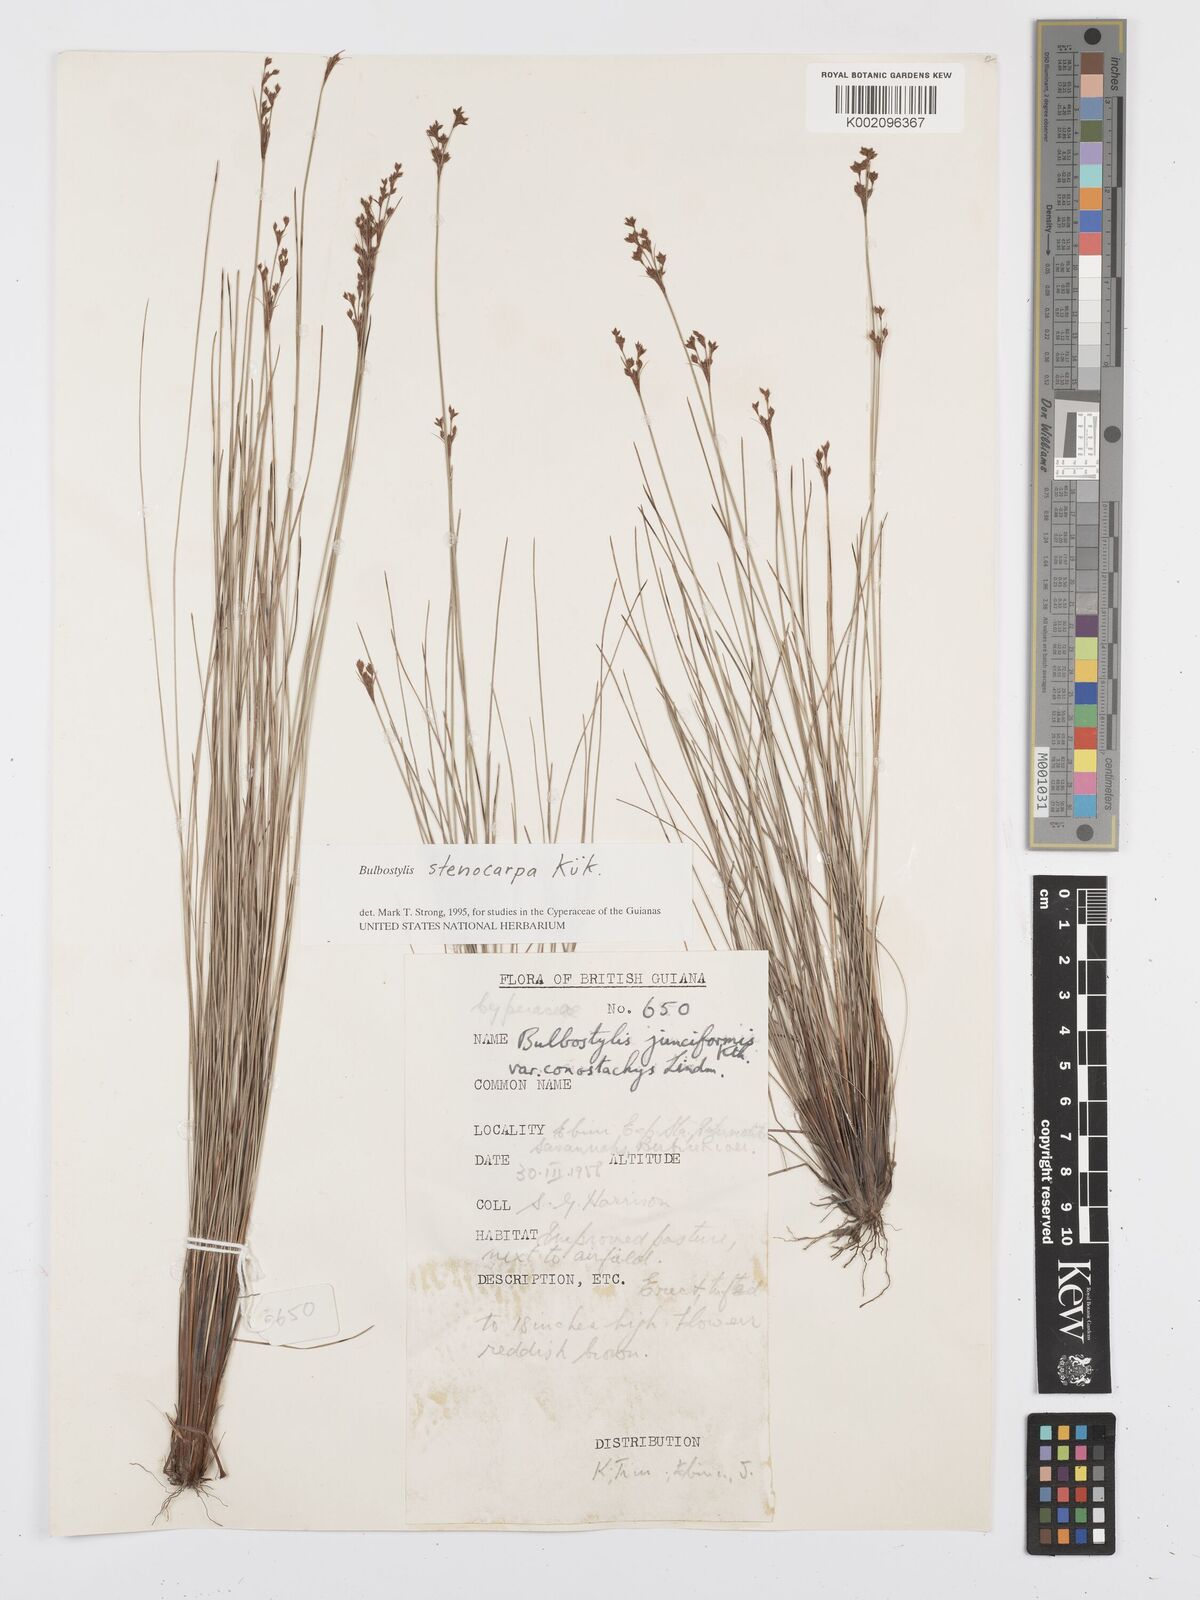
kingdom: Plantae
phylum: Tracheophyta
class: Liliopsida
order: Poales
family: Cyperaceae
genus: Bulbostylis
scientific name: Bulbostylis stenocarpa
